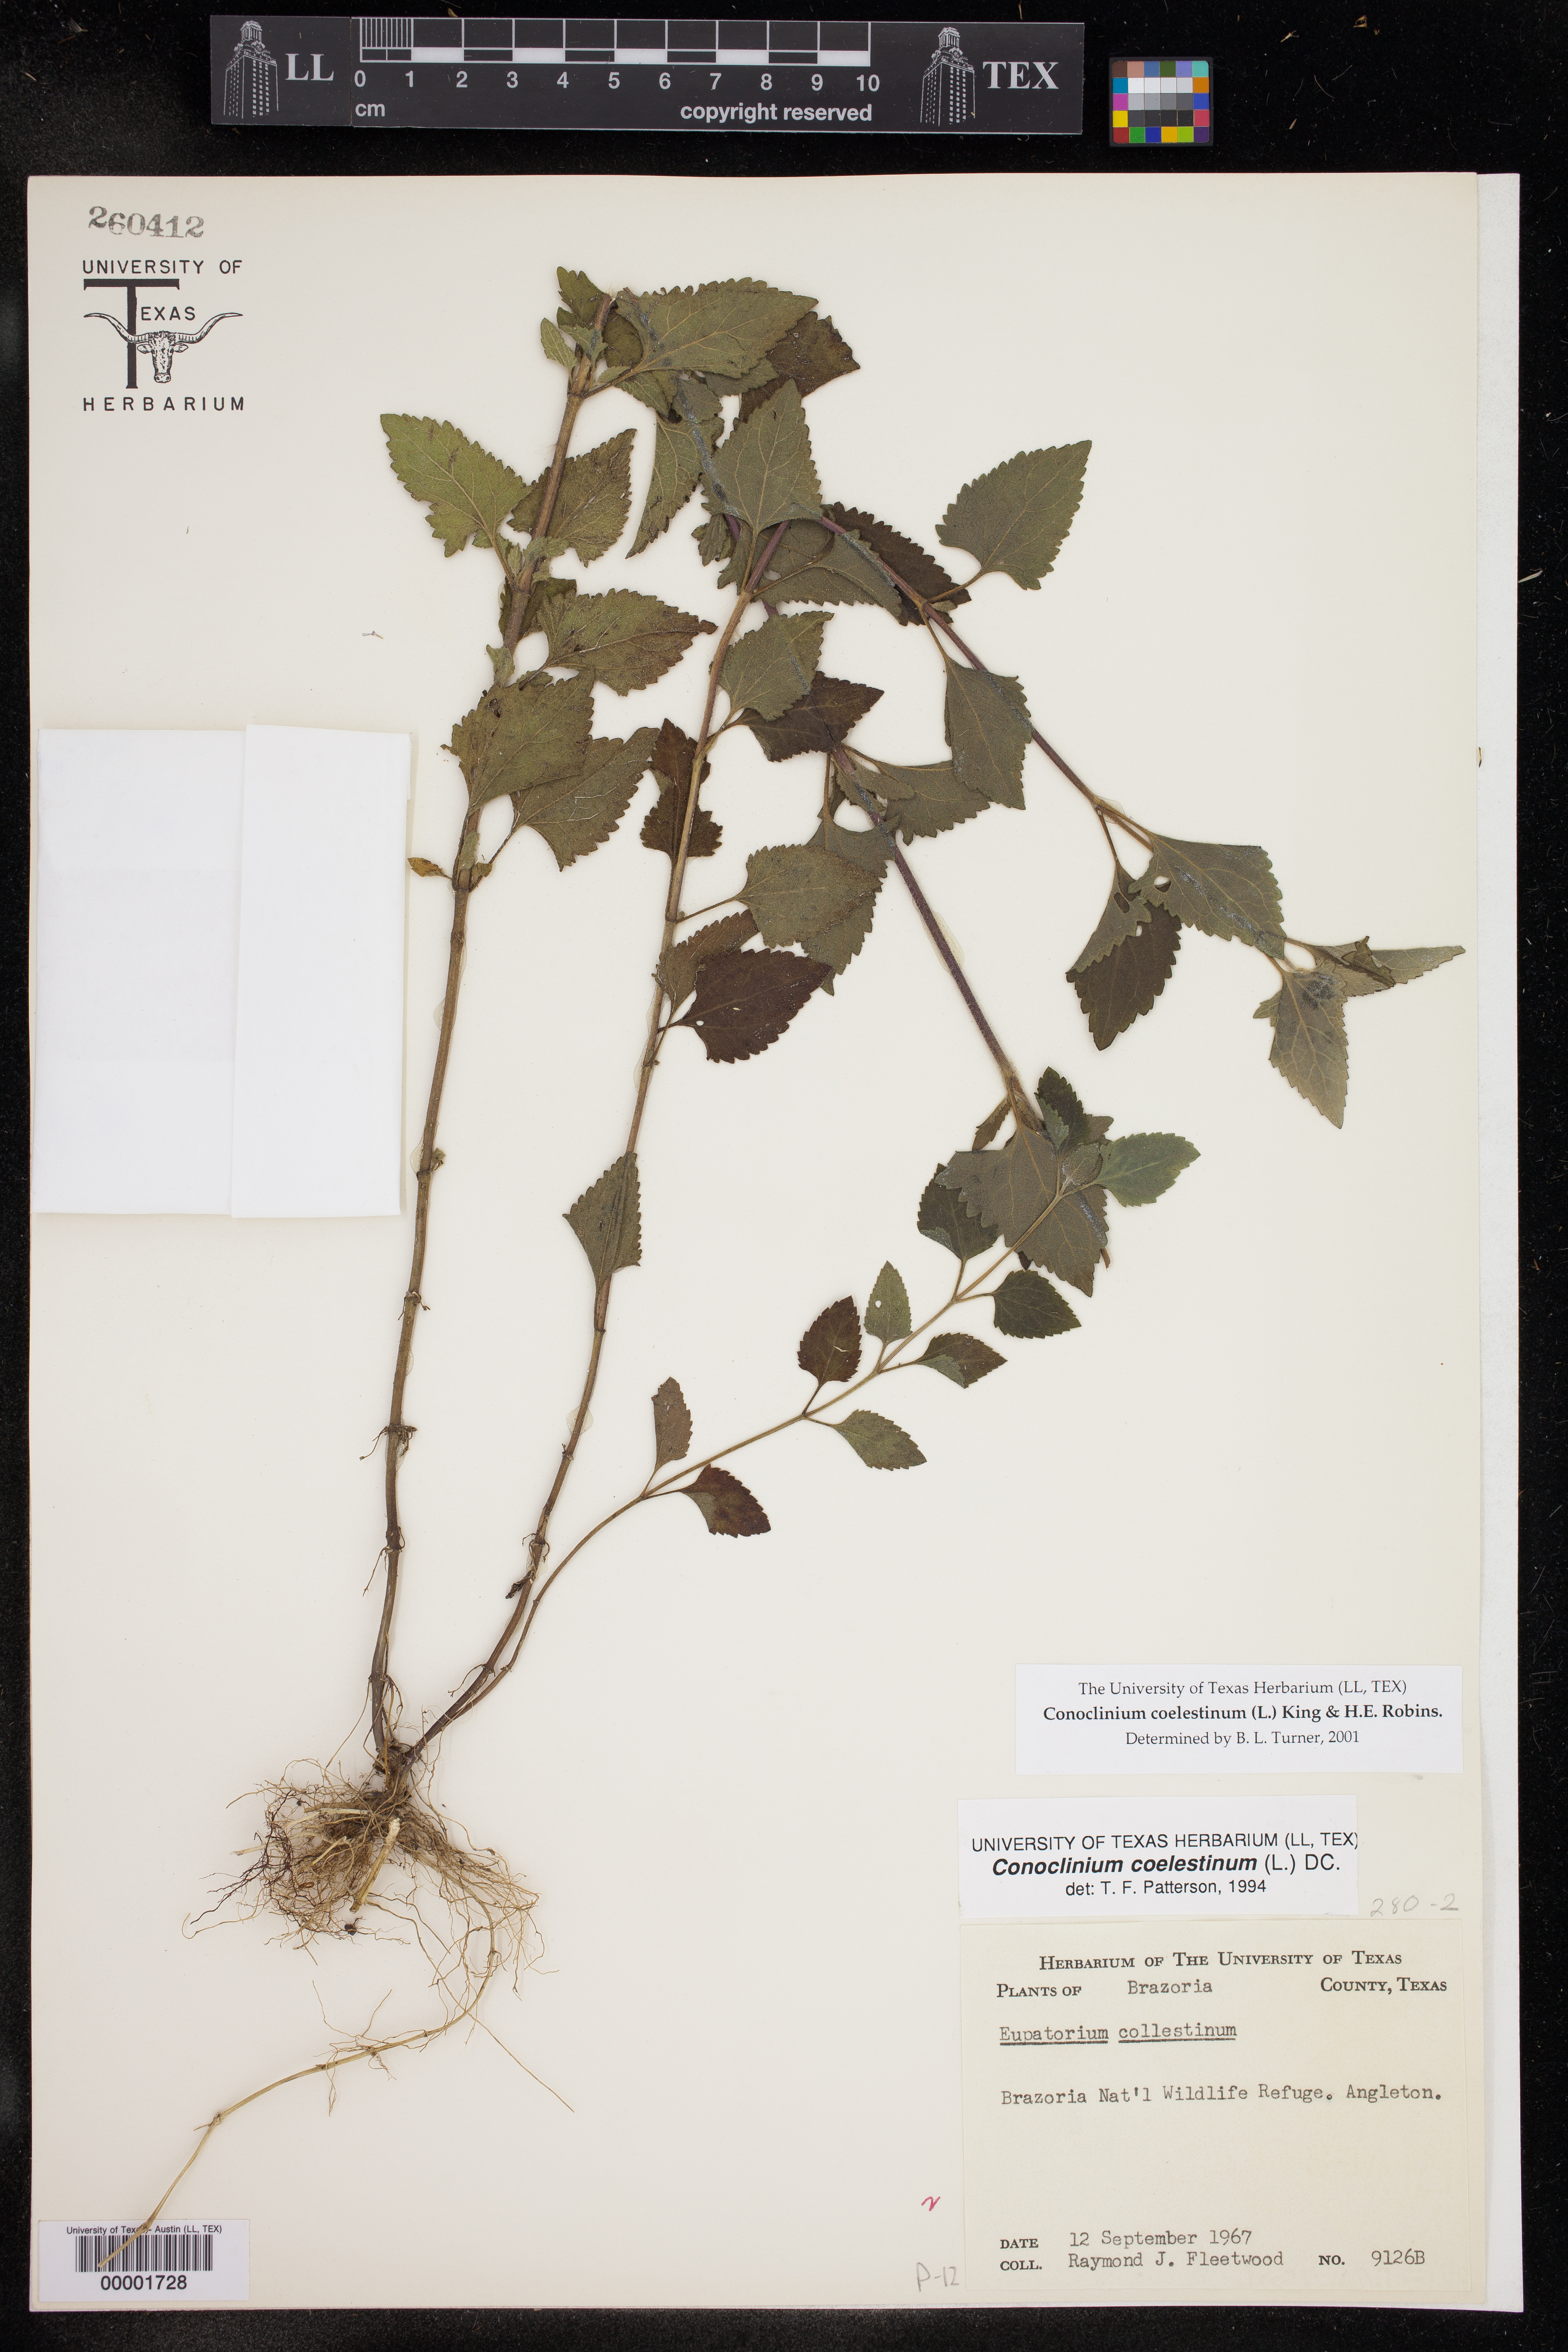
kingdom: Plantae
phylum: Tracheophyta
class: Magnoliopsida
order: Asterales
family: Asteraceae
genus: Conoclinium
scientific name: Conoclinium coelestinum
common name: Blue mistflower
